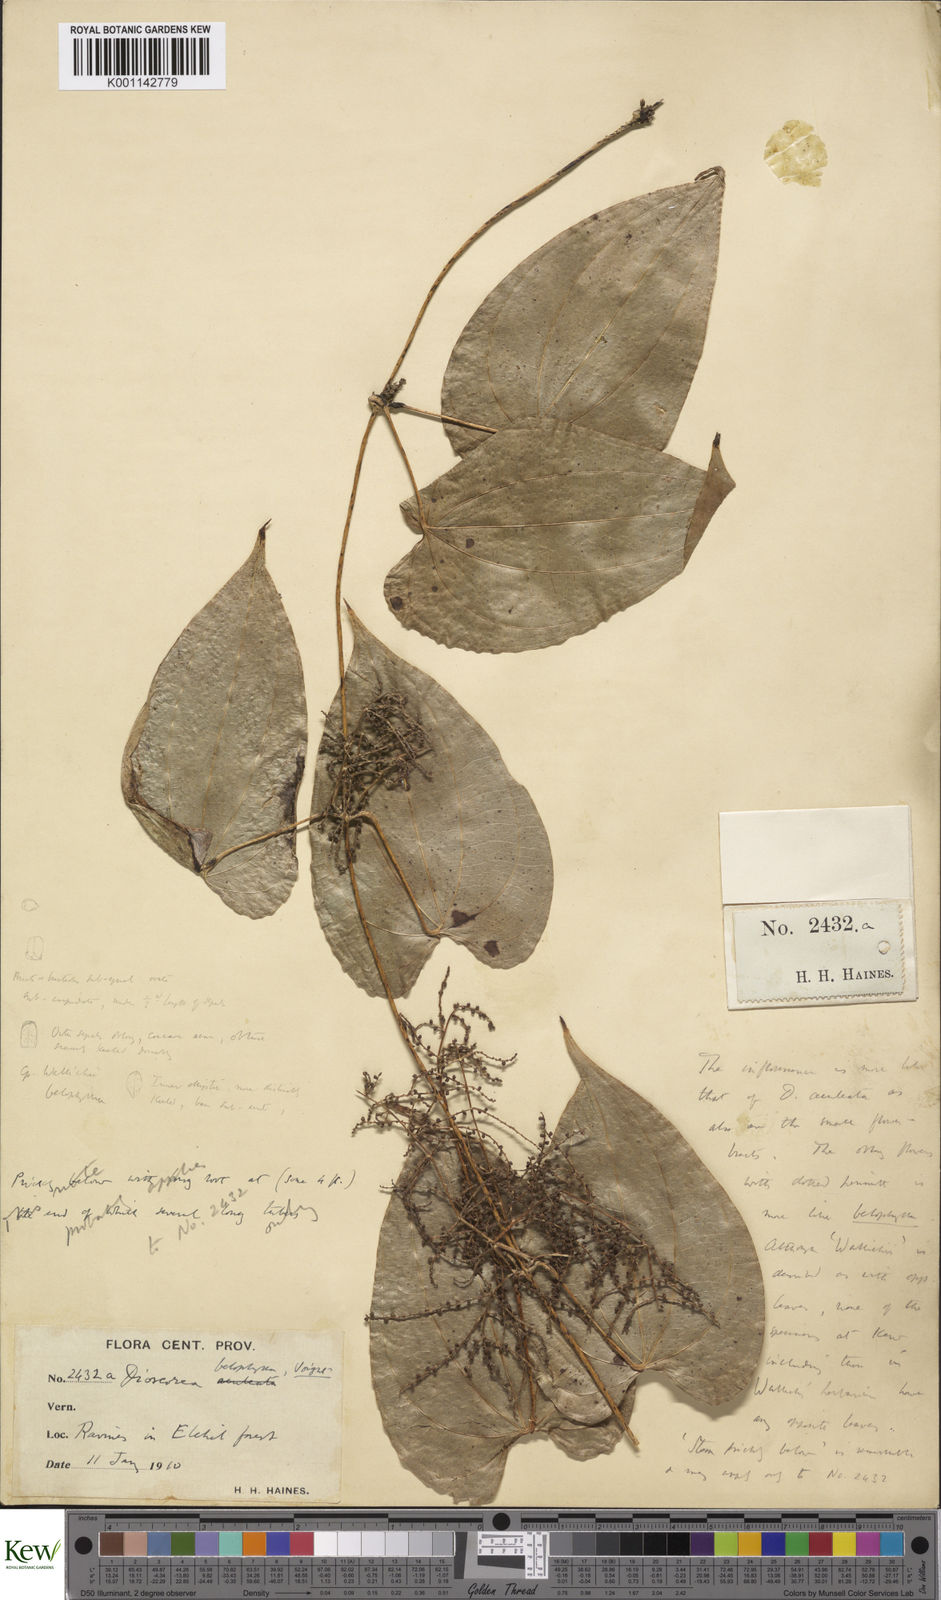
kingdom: Plantae
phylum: Tracheophyta
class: Liliopsida
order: Dioscoreales
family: Dioscoreaceae
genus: Dioscorea
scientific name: Dioscorea belophylla
